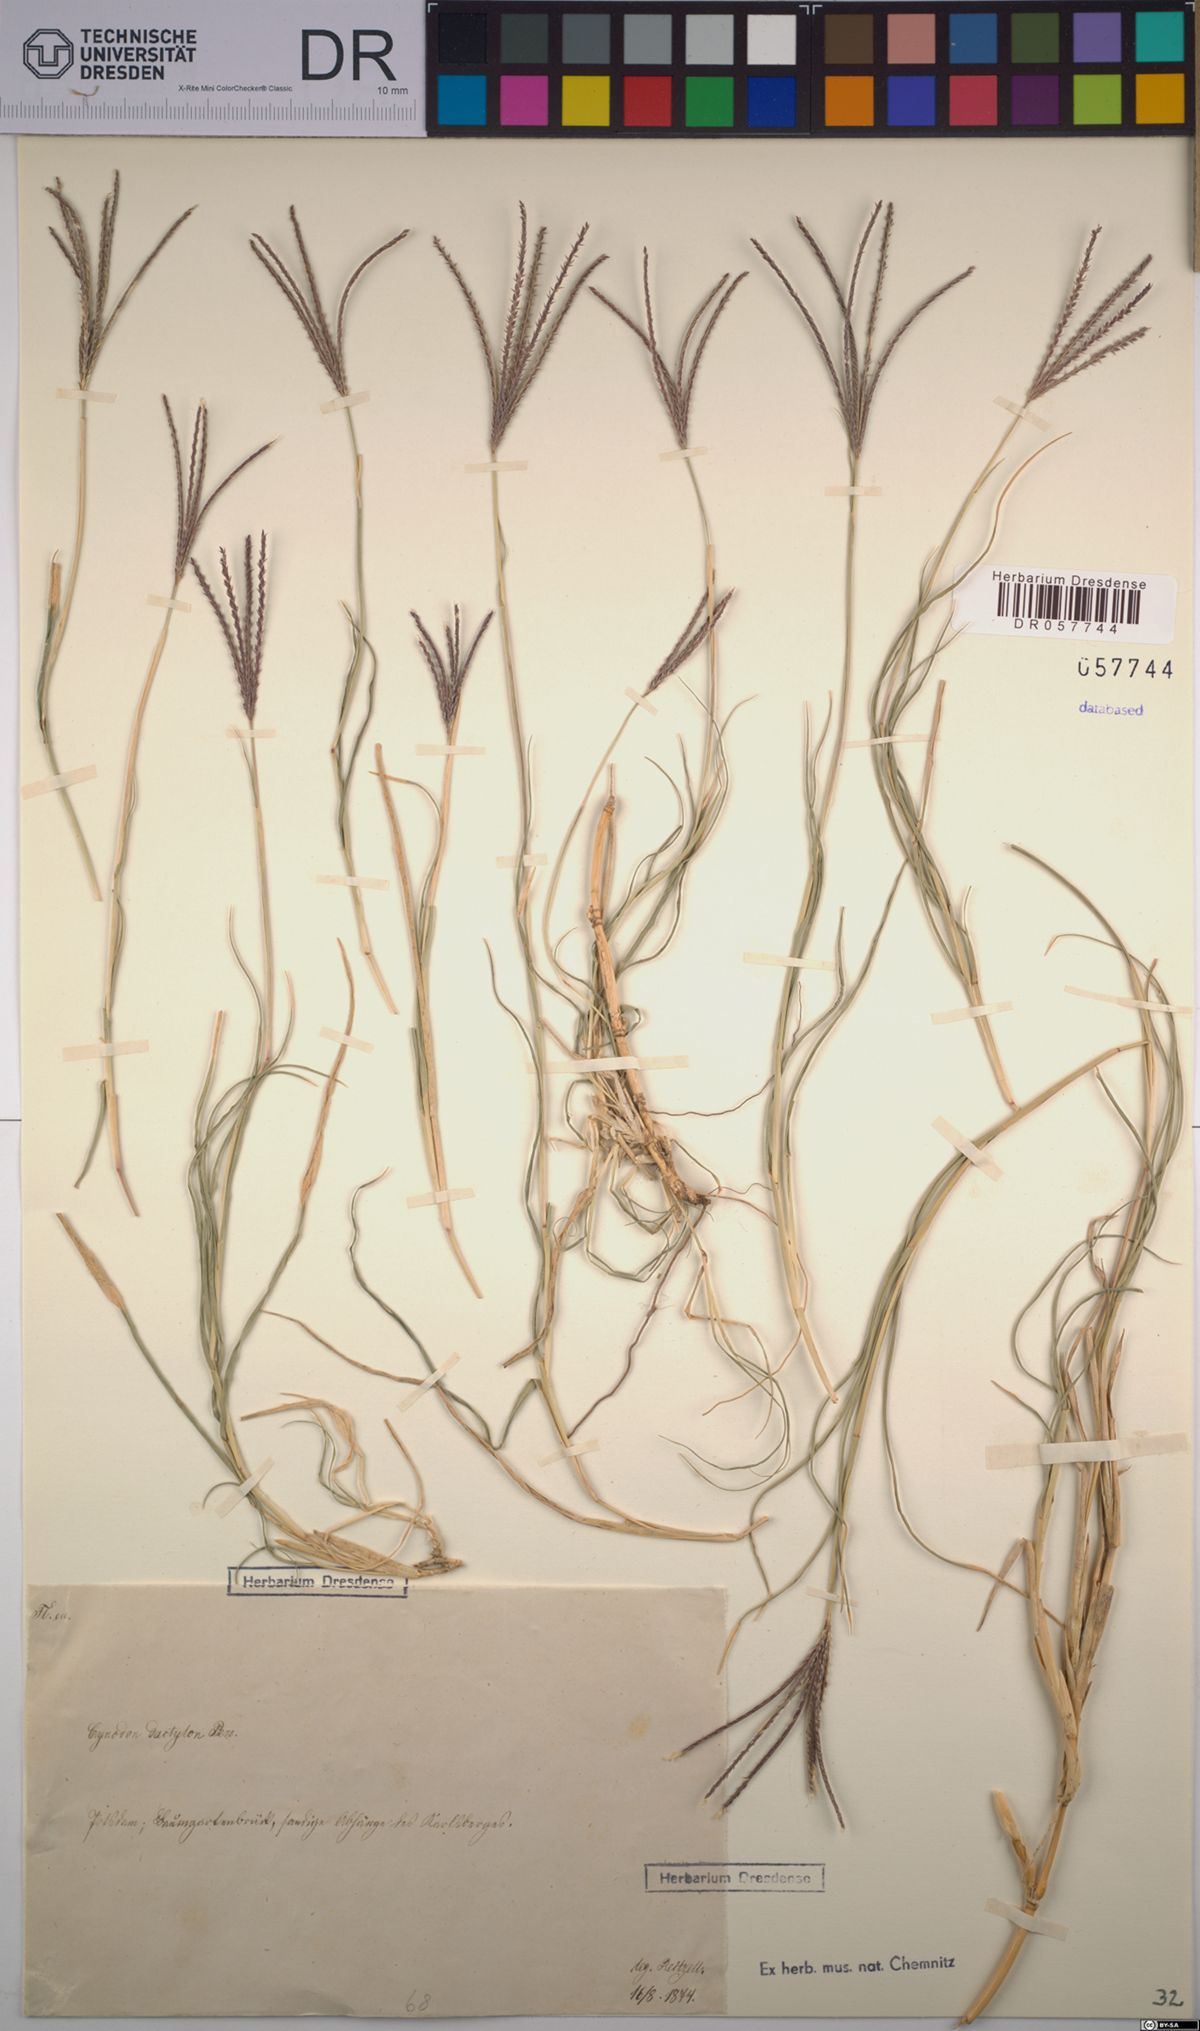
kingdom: Plantae
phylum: Tracheophyta
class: Liliopsida
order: Poales
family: Poaceae
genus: Cynodon
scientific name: Cynodon dactylon
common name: Bermuda grass
